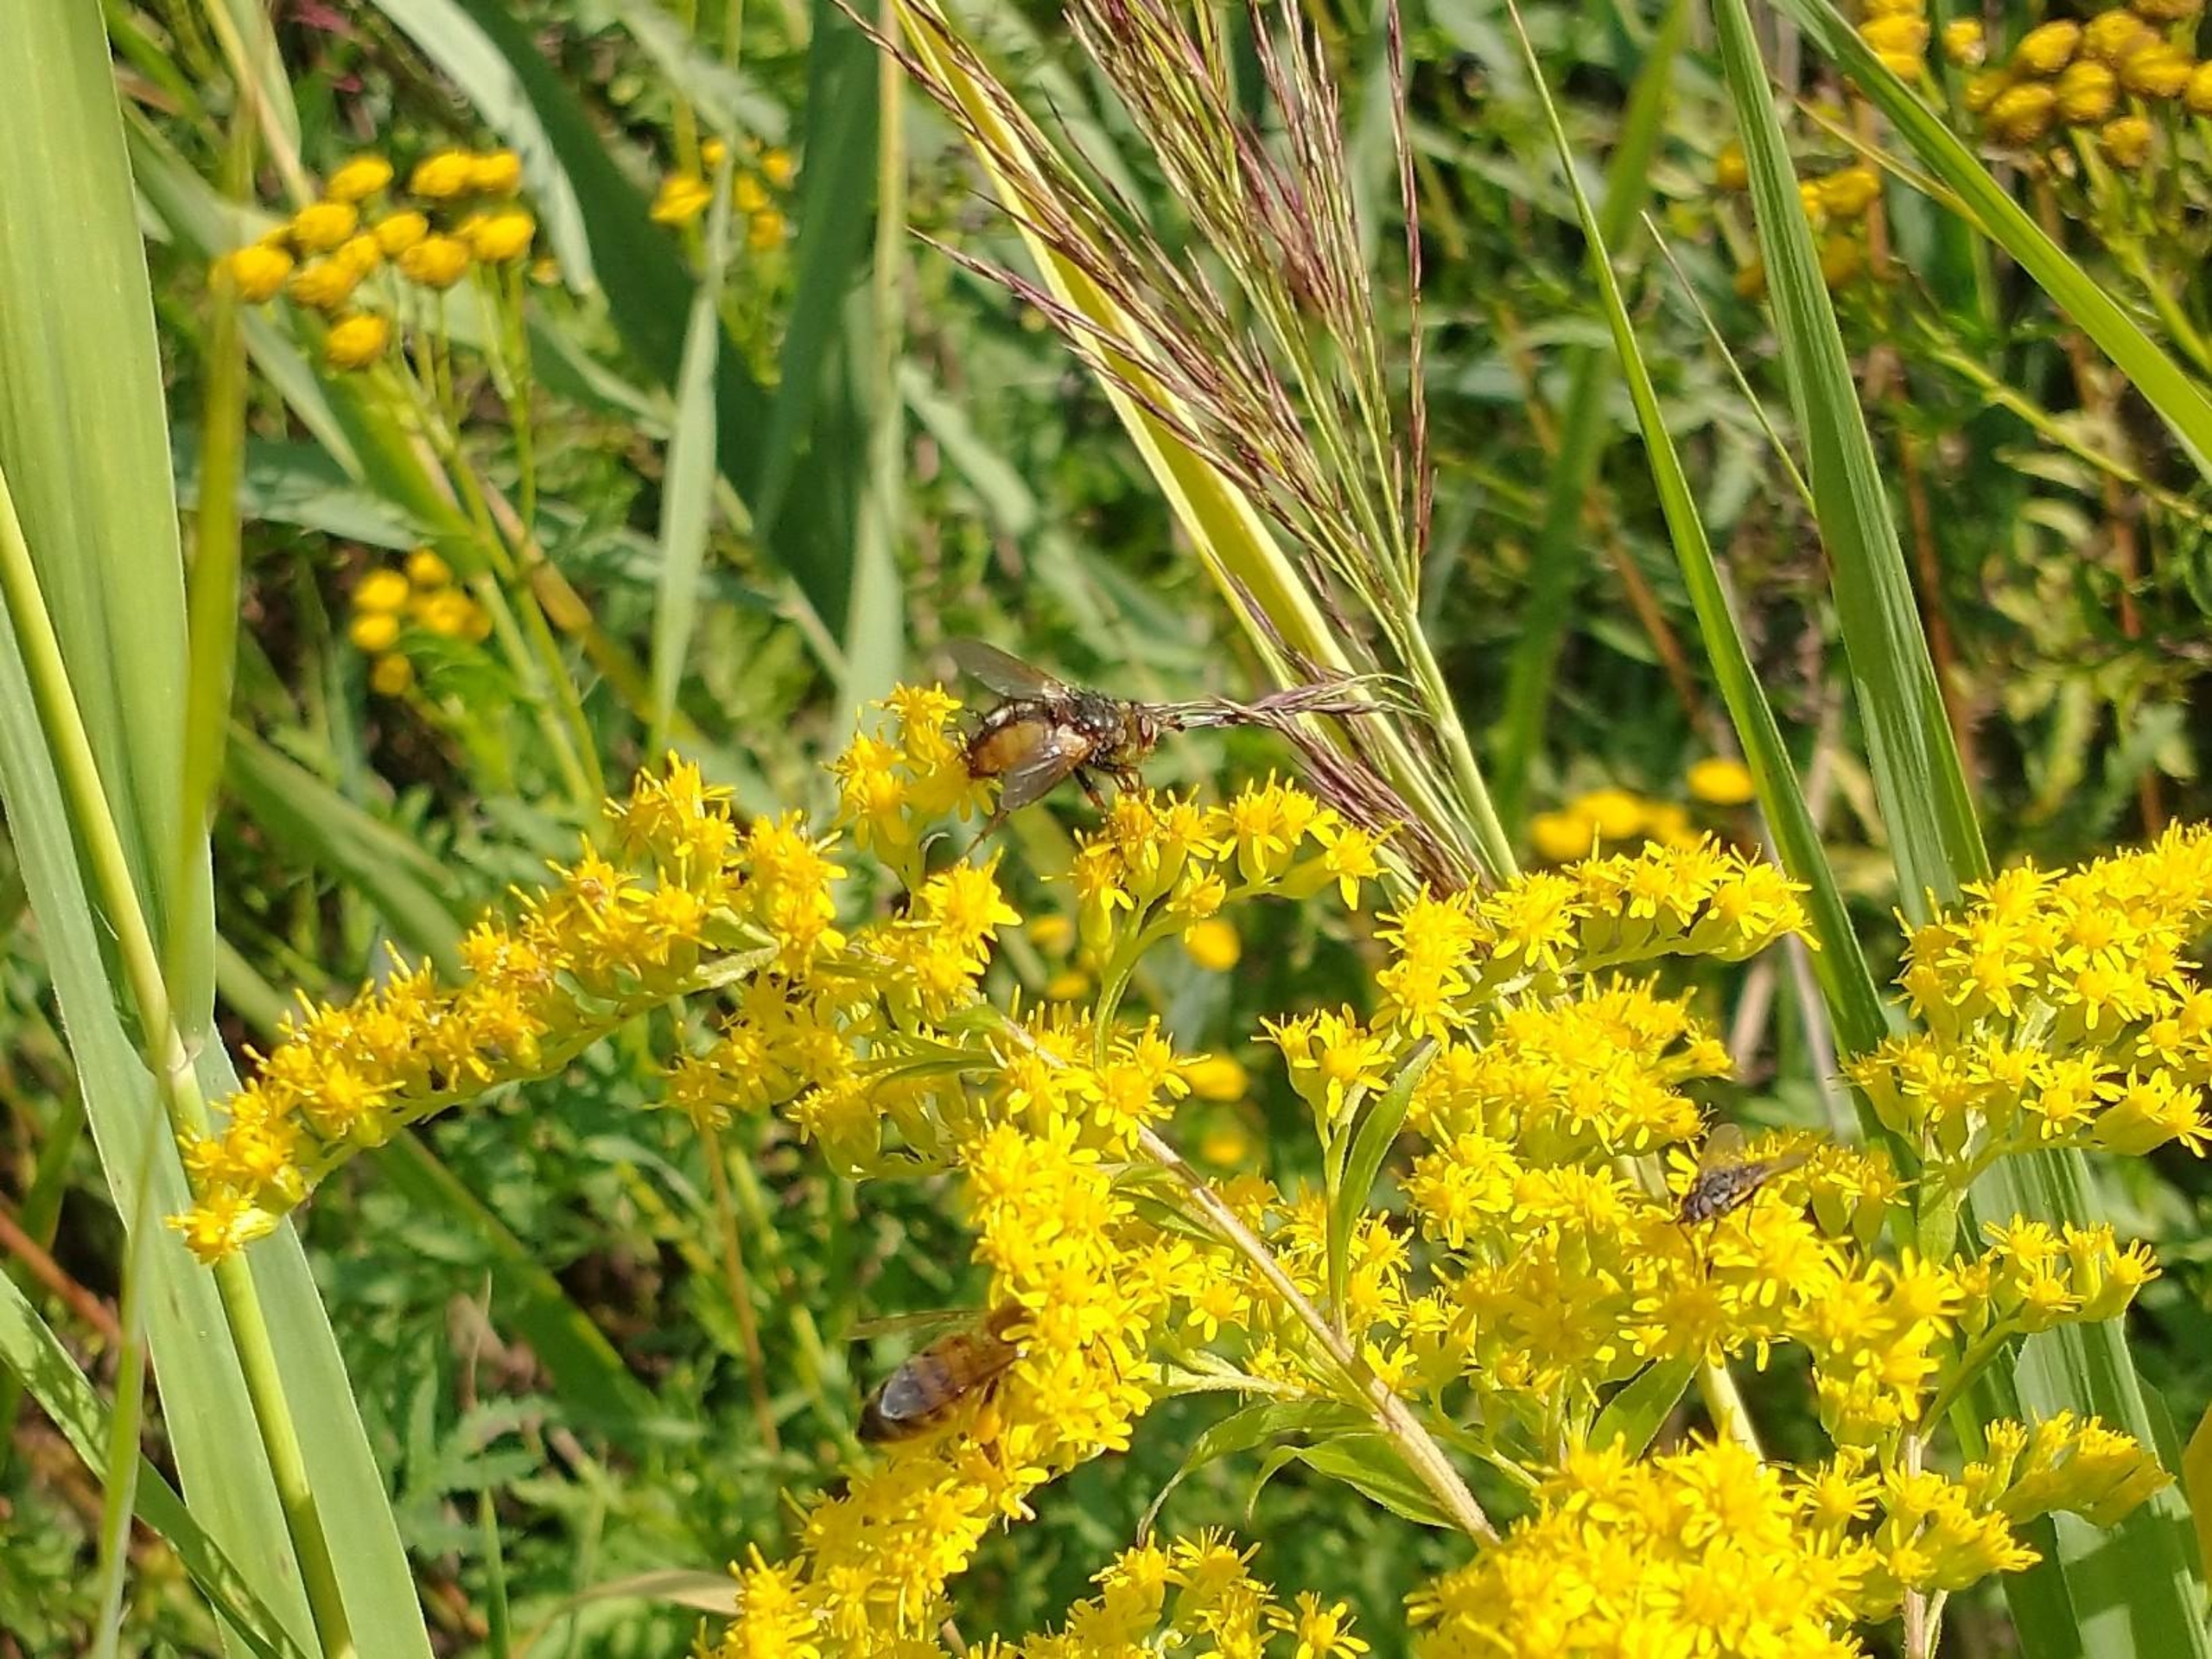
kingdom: Animalia
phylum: Arthropoda
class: Insecta
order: Diptera
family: Tachinidae
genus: Tachina
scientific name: Tachina fera
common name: Mellemfluen oskar
